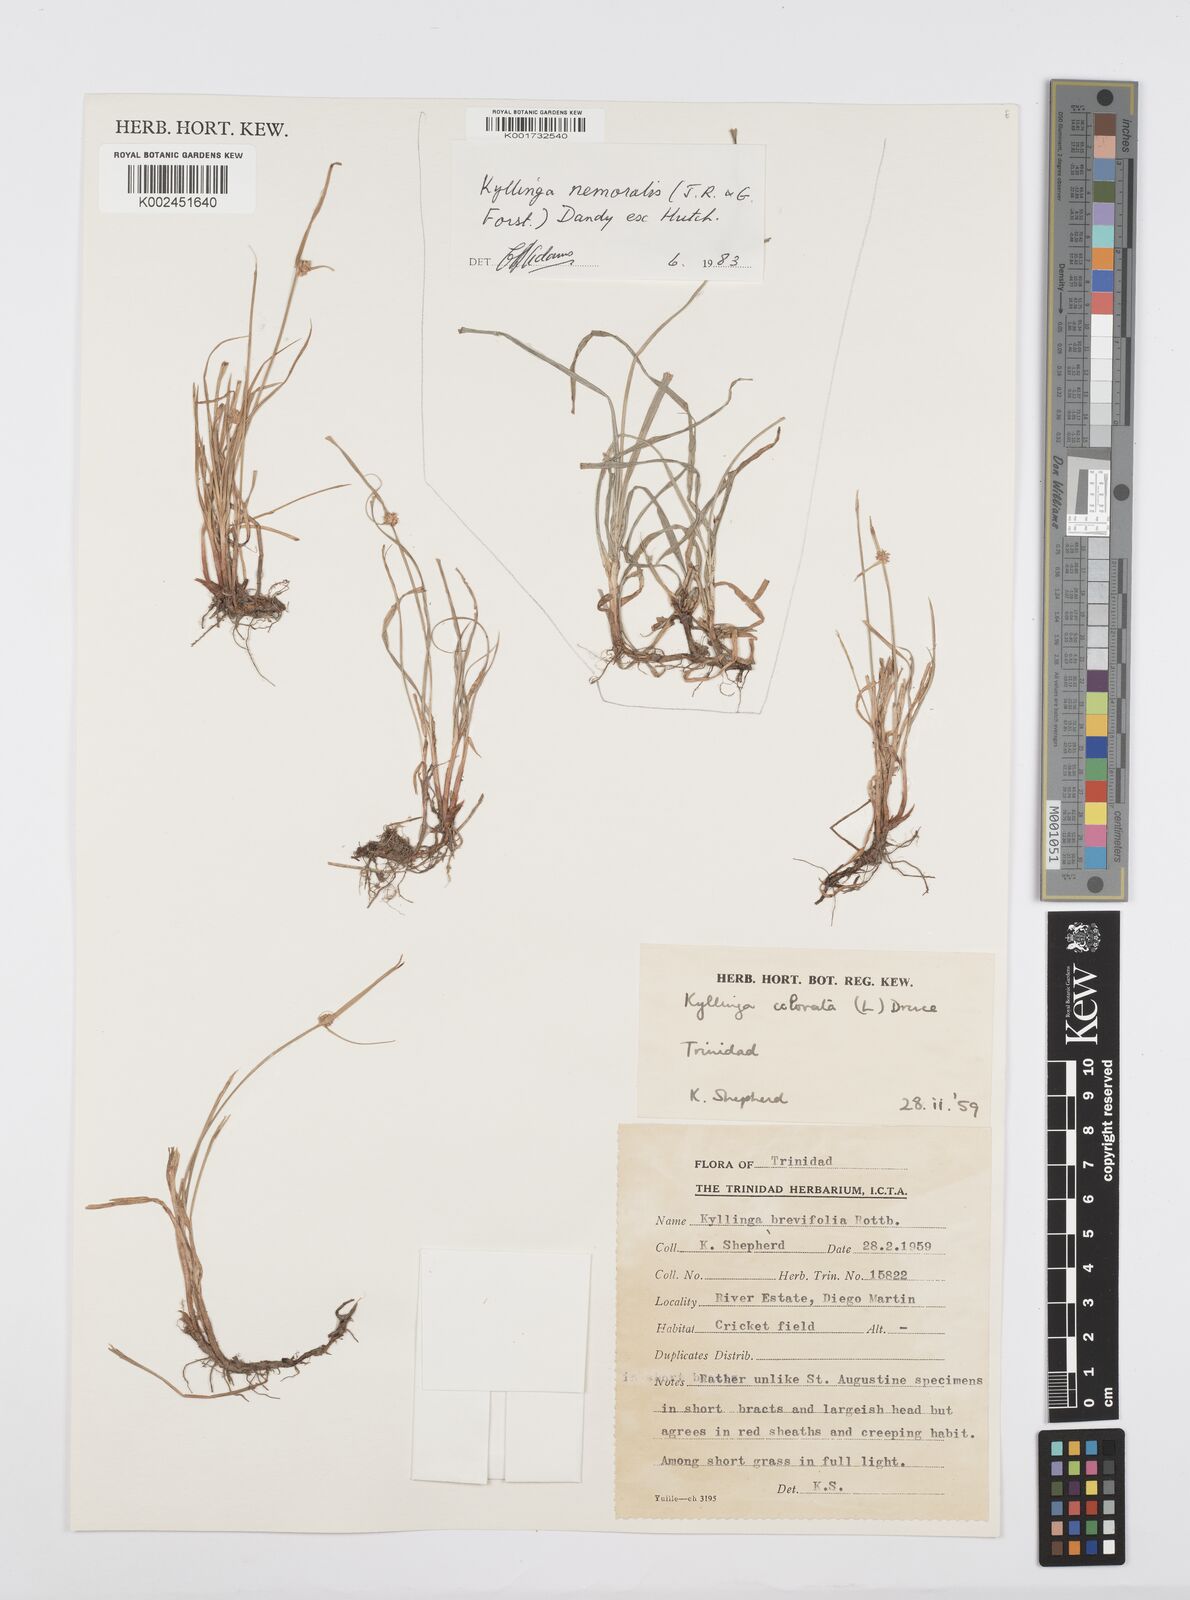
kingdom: Plantae
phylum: Tracheophyta
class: Liliopsida
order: Poales
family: Cyperaceae
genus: Cyperus
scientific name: Cyperus brevifolius
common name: Globe kyllinga
